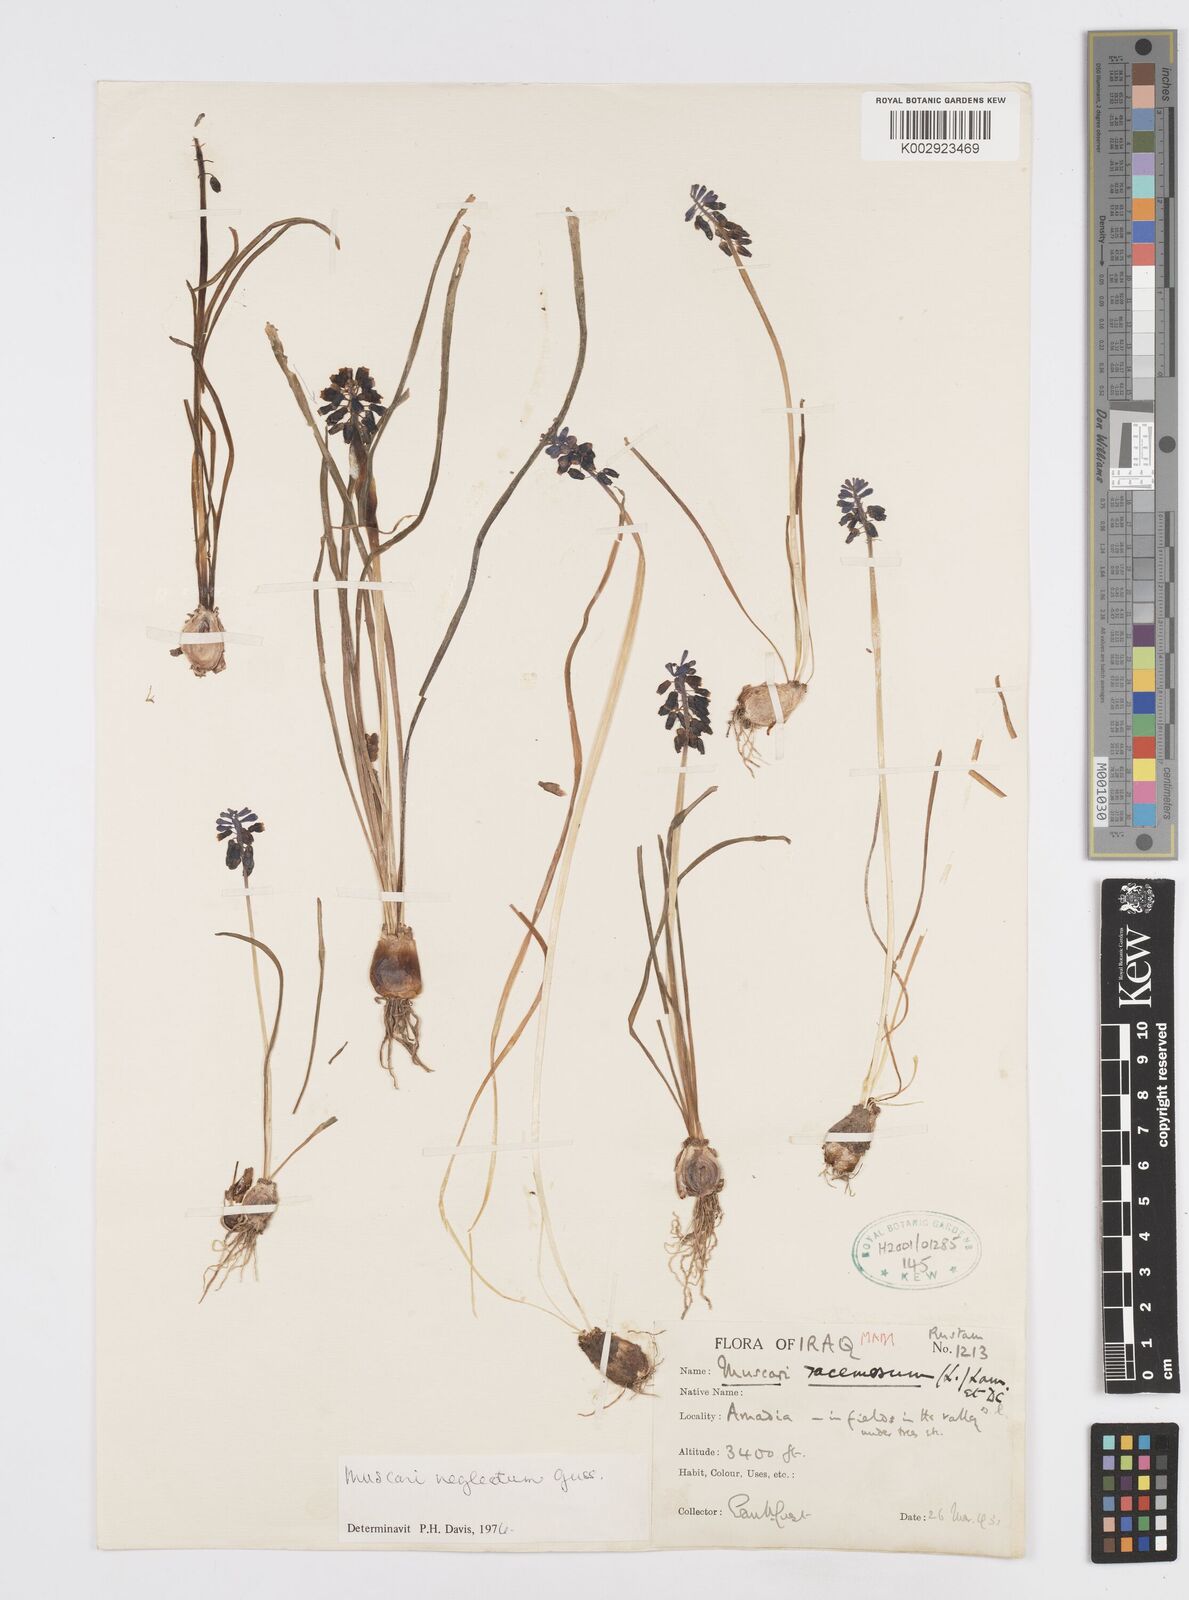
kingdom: Plantae
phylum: Tracheophyta
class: Liliopsida
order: Asparagales
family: Asparagaceae
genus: Muscari
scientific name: Muscari neglectum
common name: Grape-hyacinth
